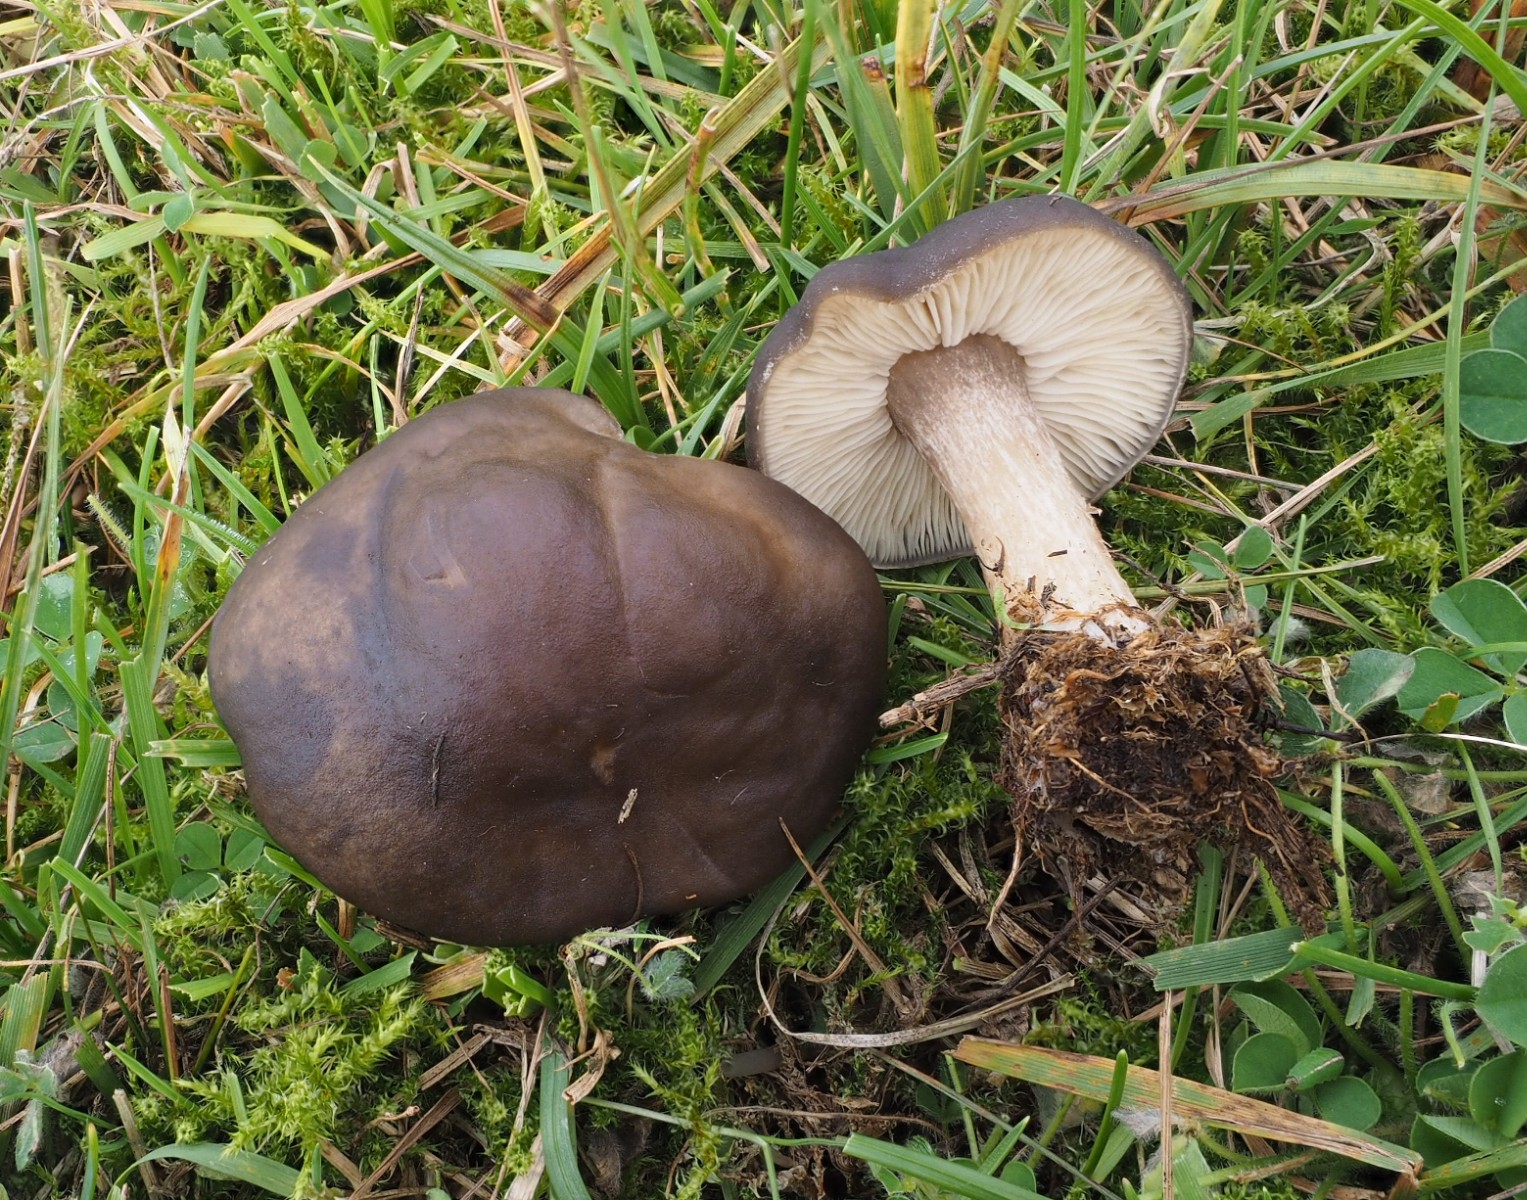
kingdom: Fungi
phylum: Basidiomycota
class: Agaricomycetes
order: Agaricales
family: Tricholomataceae
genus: Melanoleuca
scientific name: Melanoleuca
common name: munkehat
